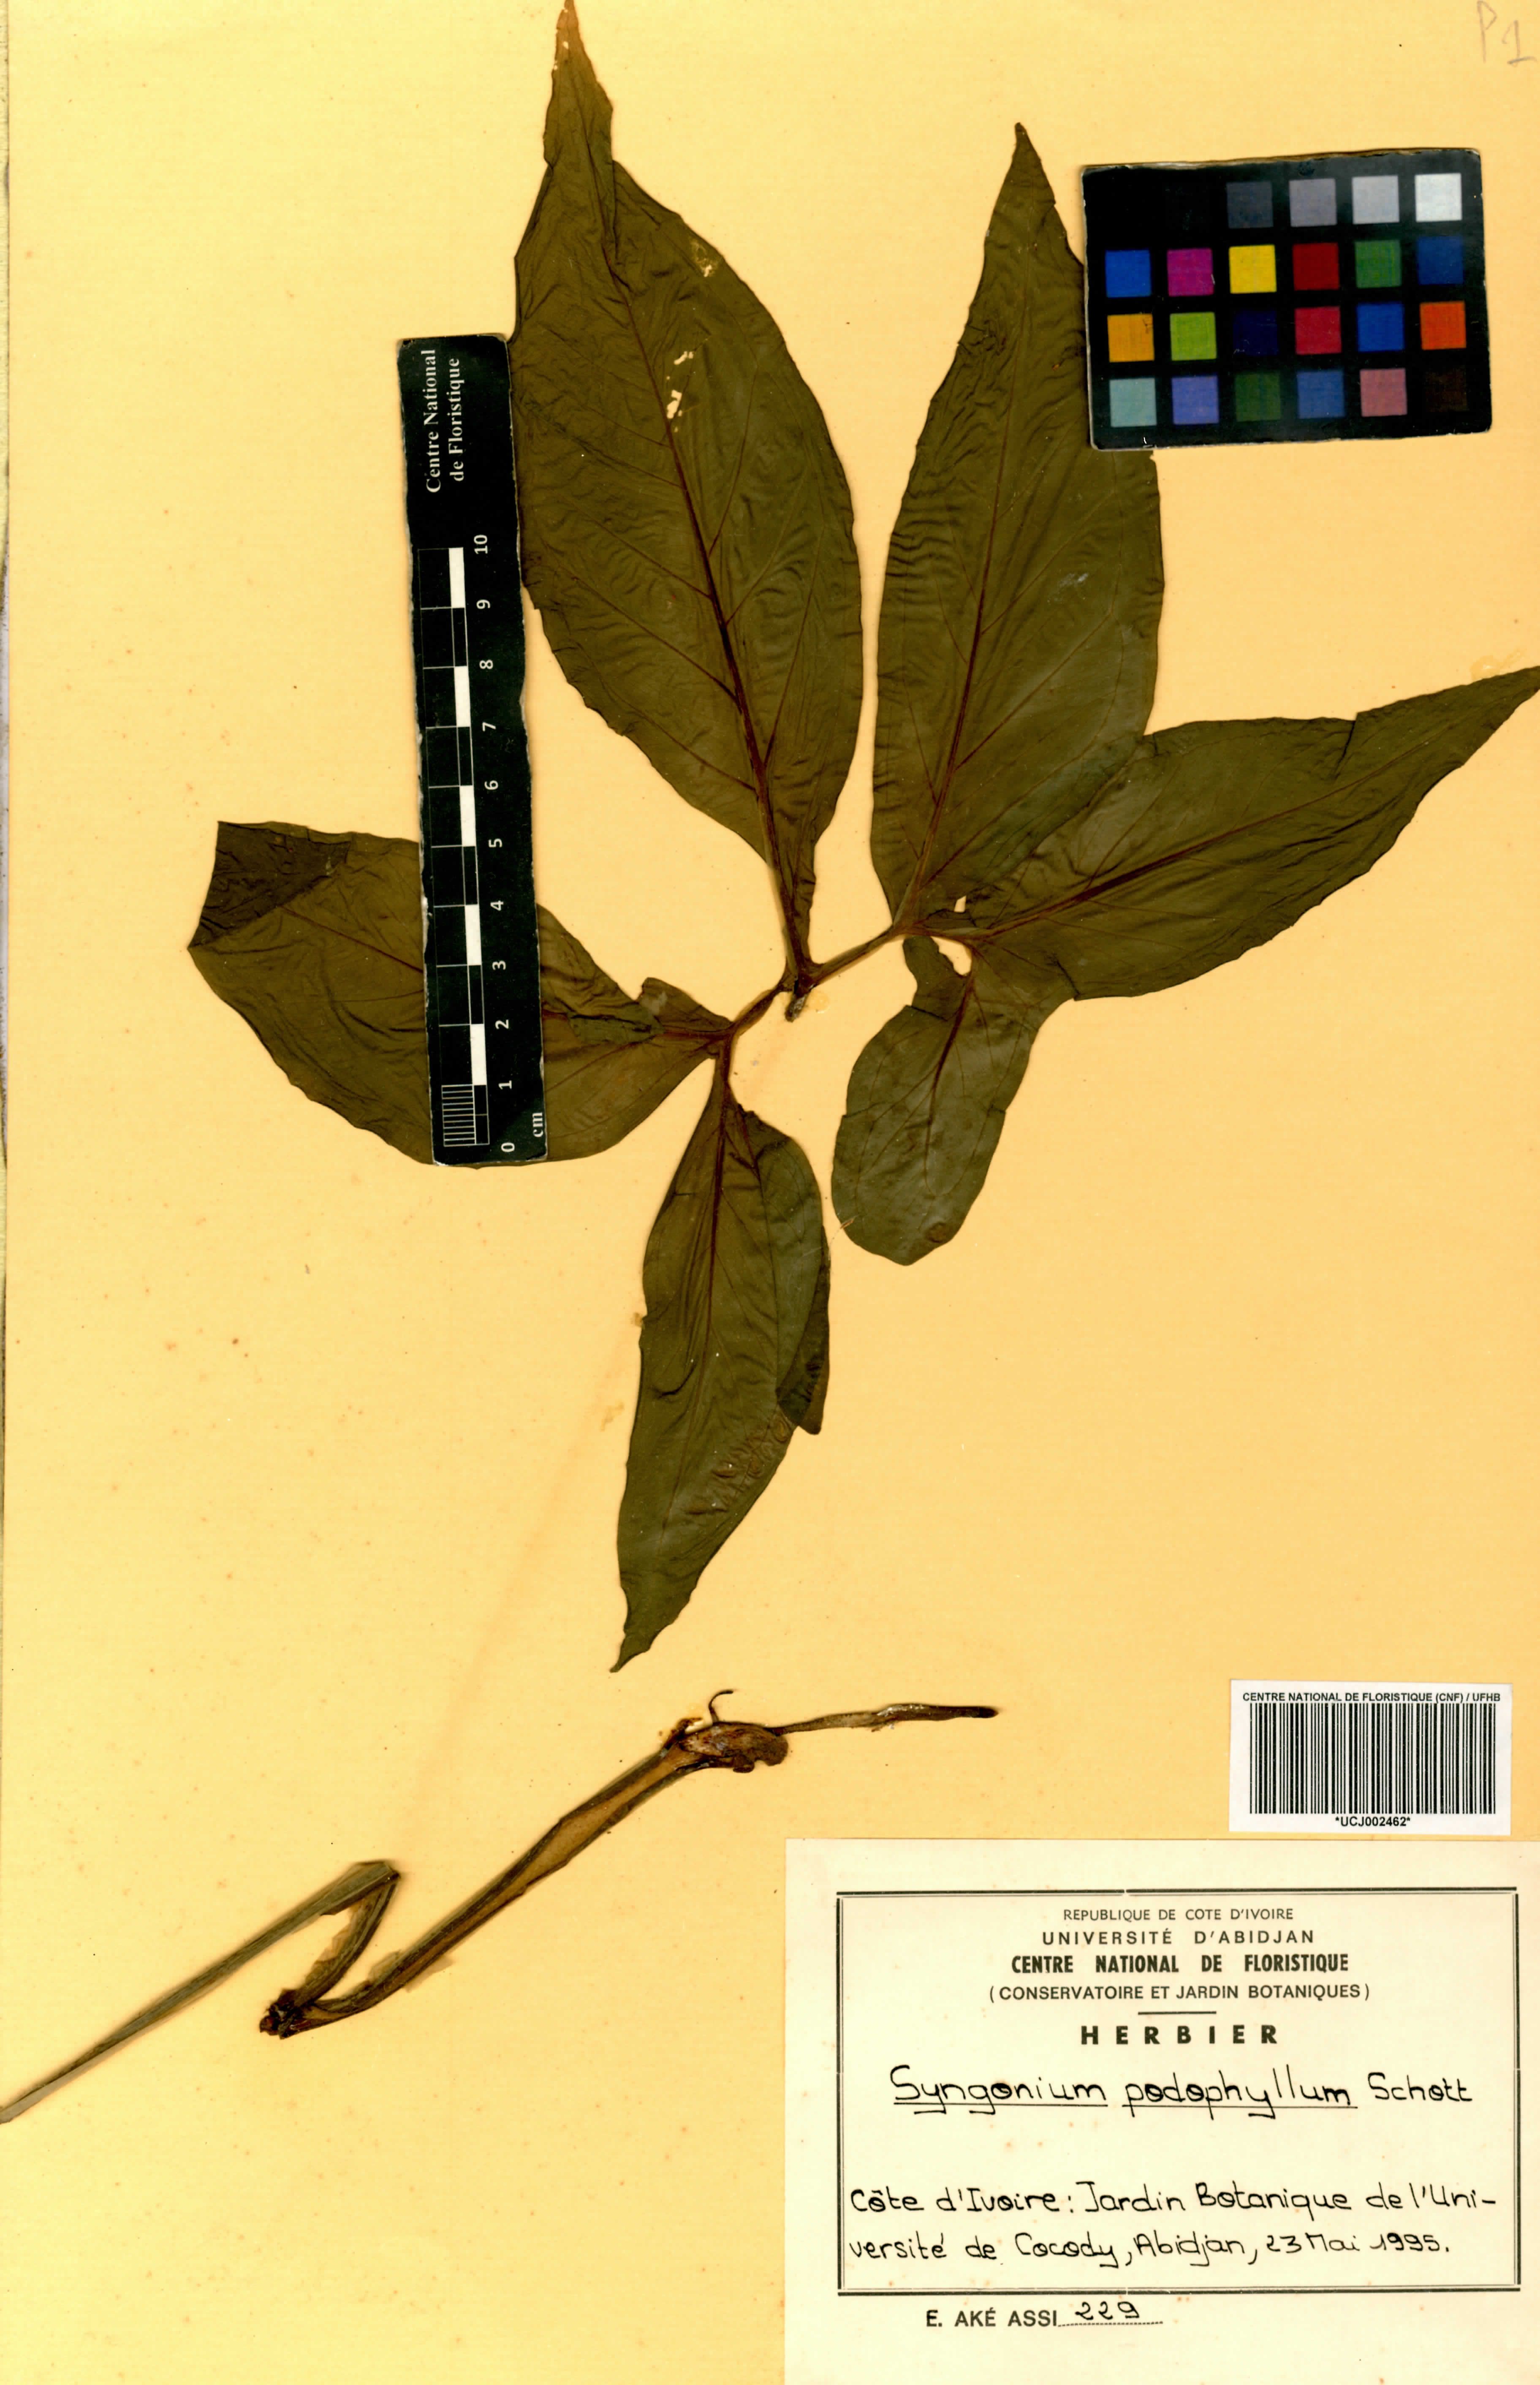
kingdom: Plantae
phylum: Tracheophyta
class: Liliopsida
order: Alismatales
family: Araceae
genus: Syngonium
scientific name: Syngonium podophyllum
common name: American evergreen
